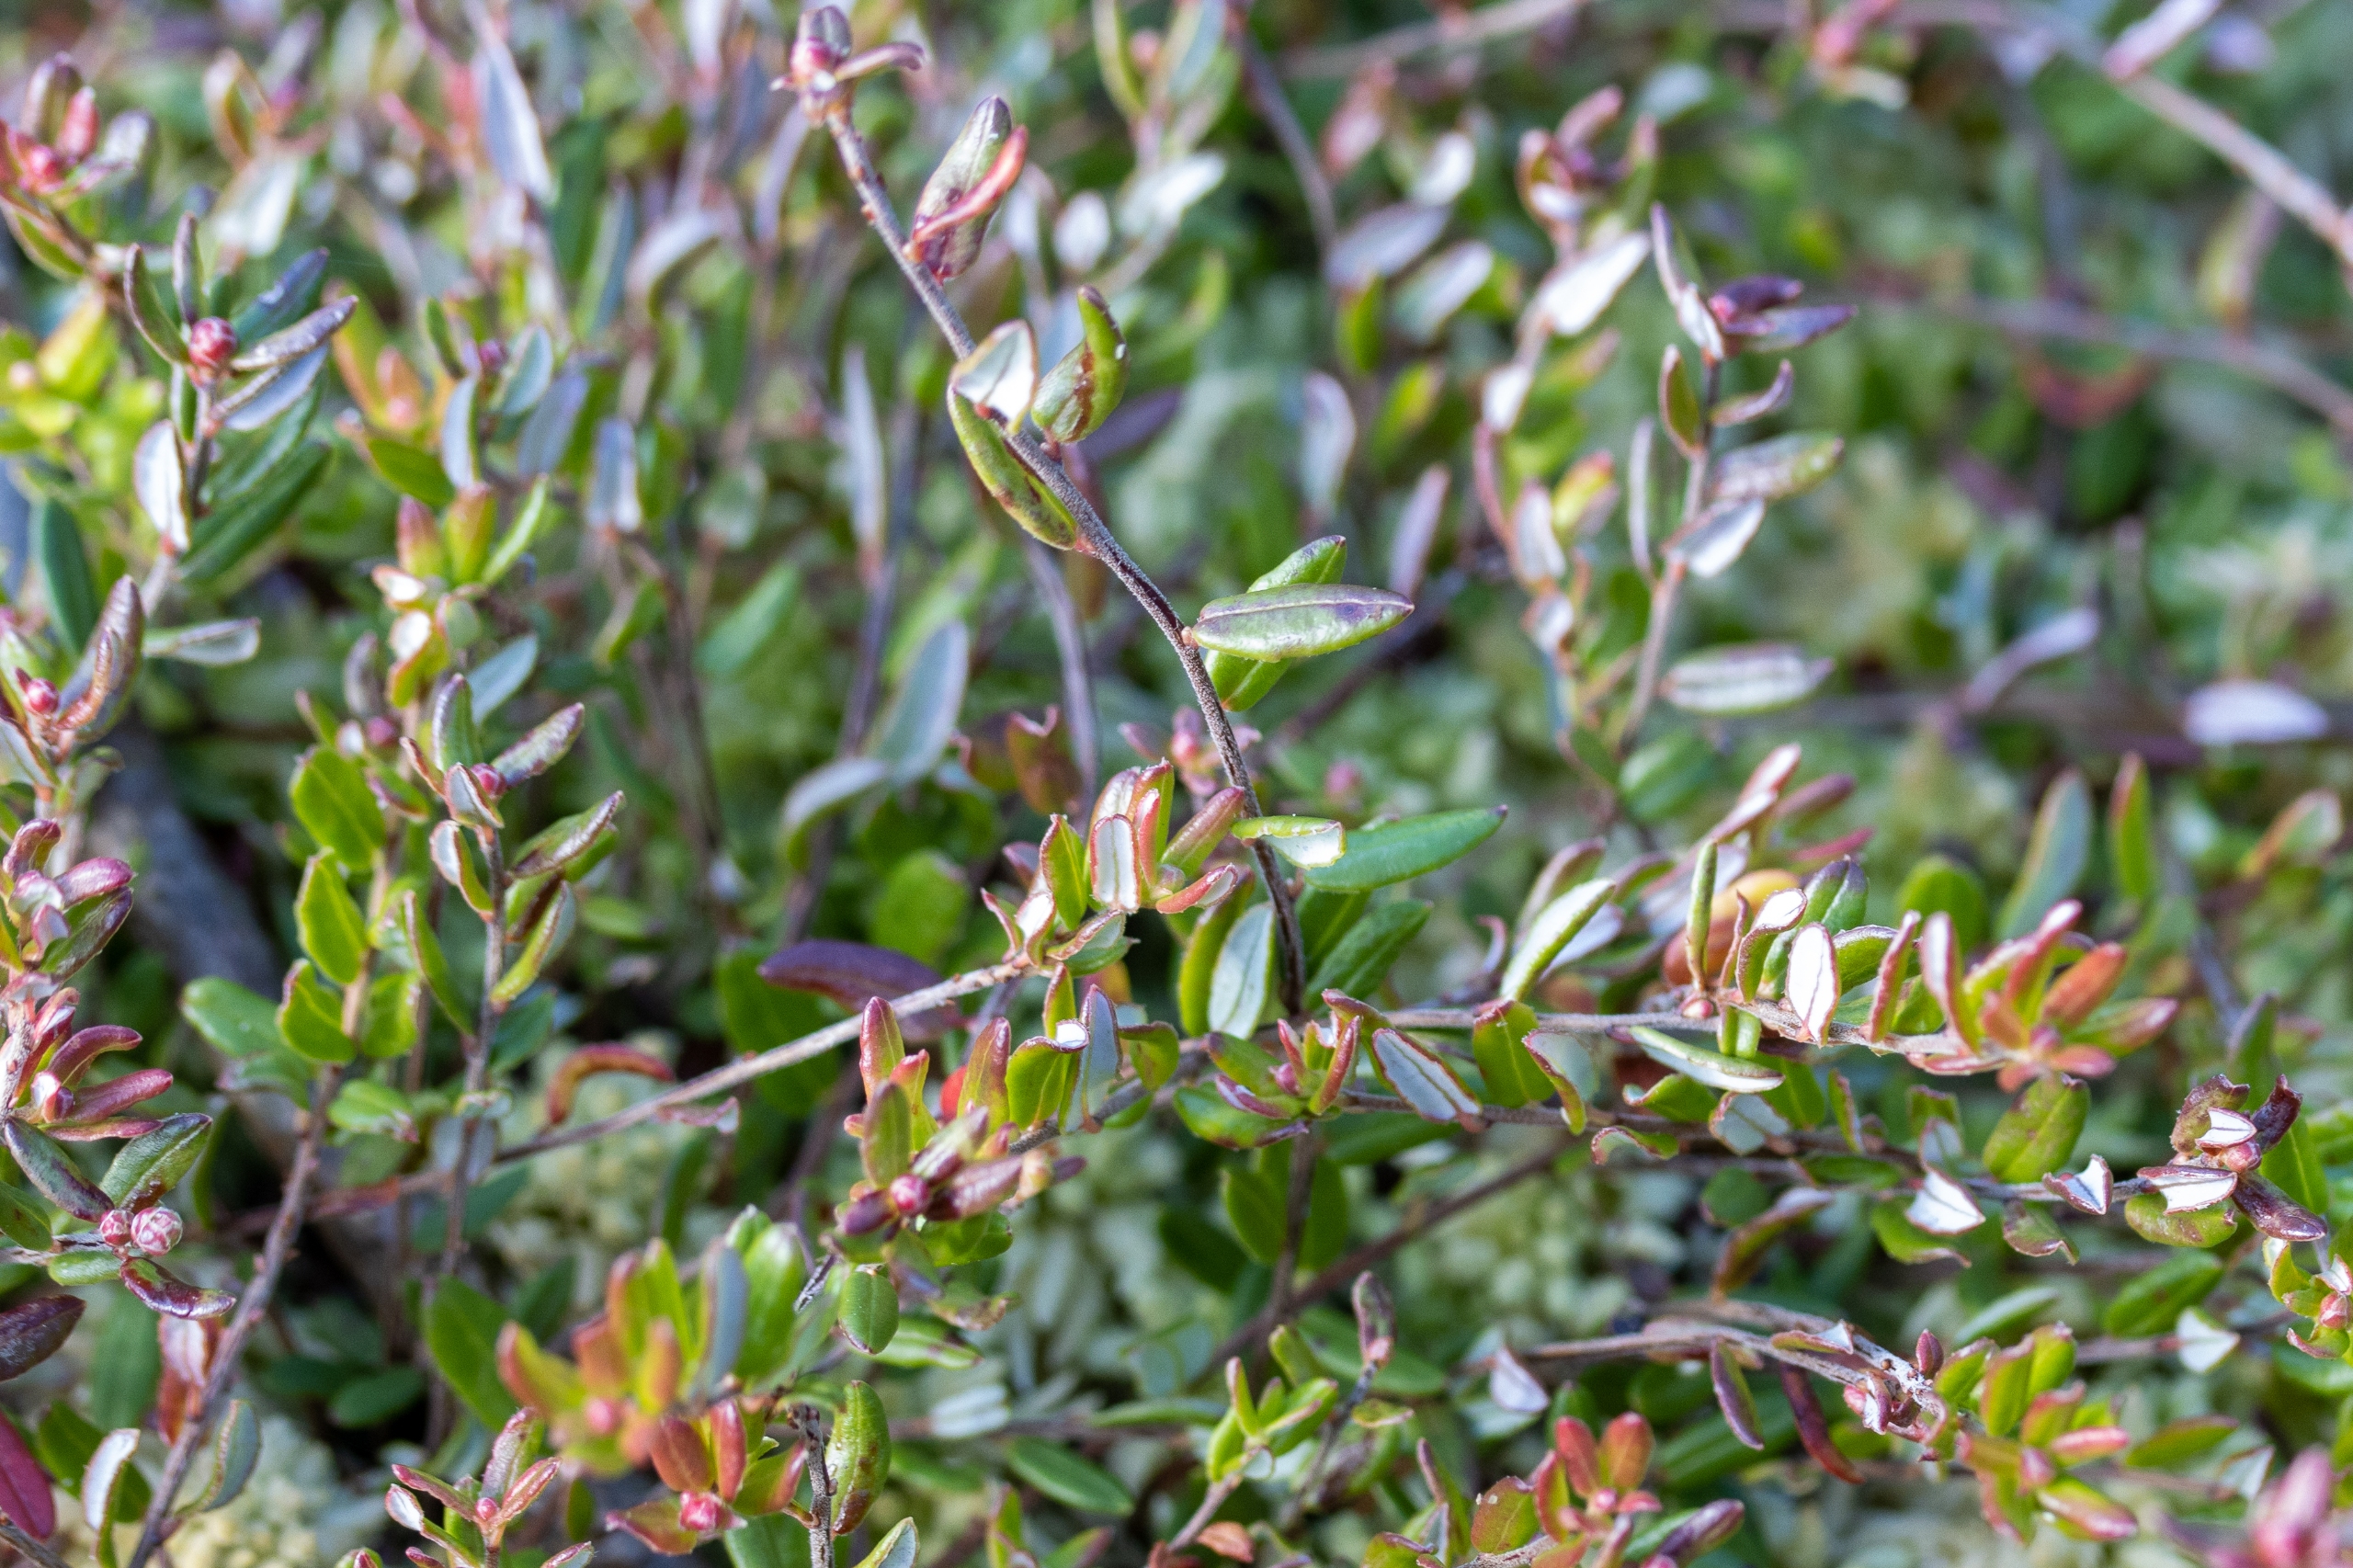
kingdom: Plantae
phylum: Tracheophyta
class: Magnoliopsida
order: Ericales
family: Ericaceae
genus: Vaccinium
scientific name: Vaccinium oxycoccos
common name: Tranebær
